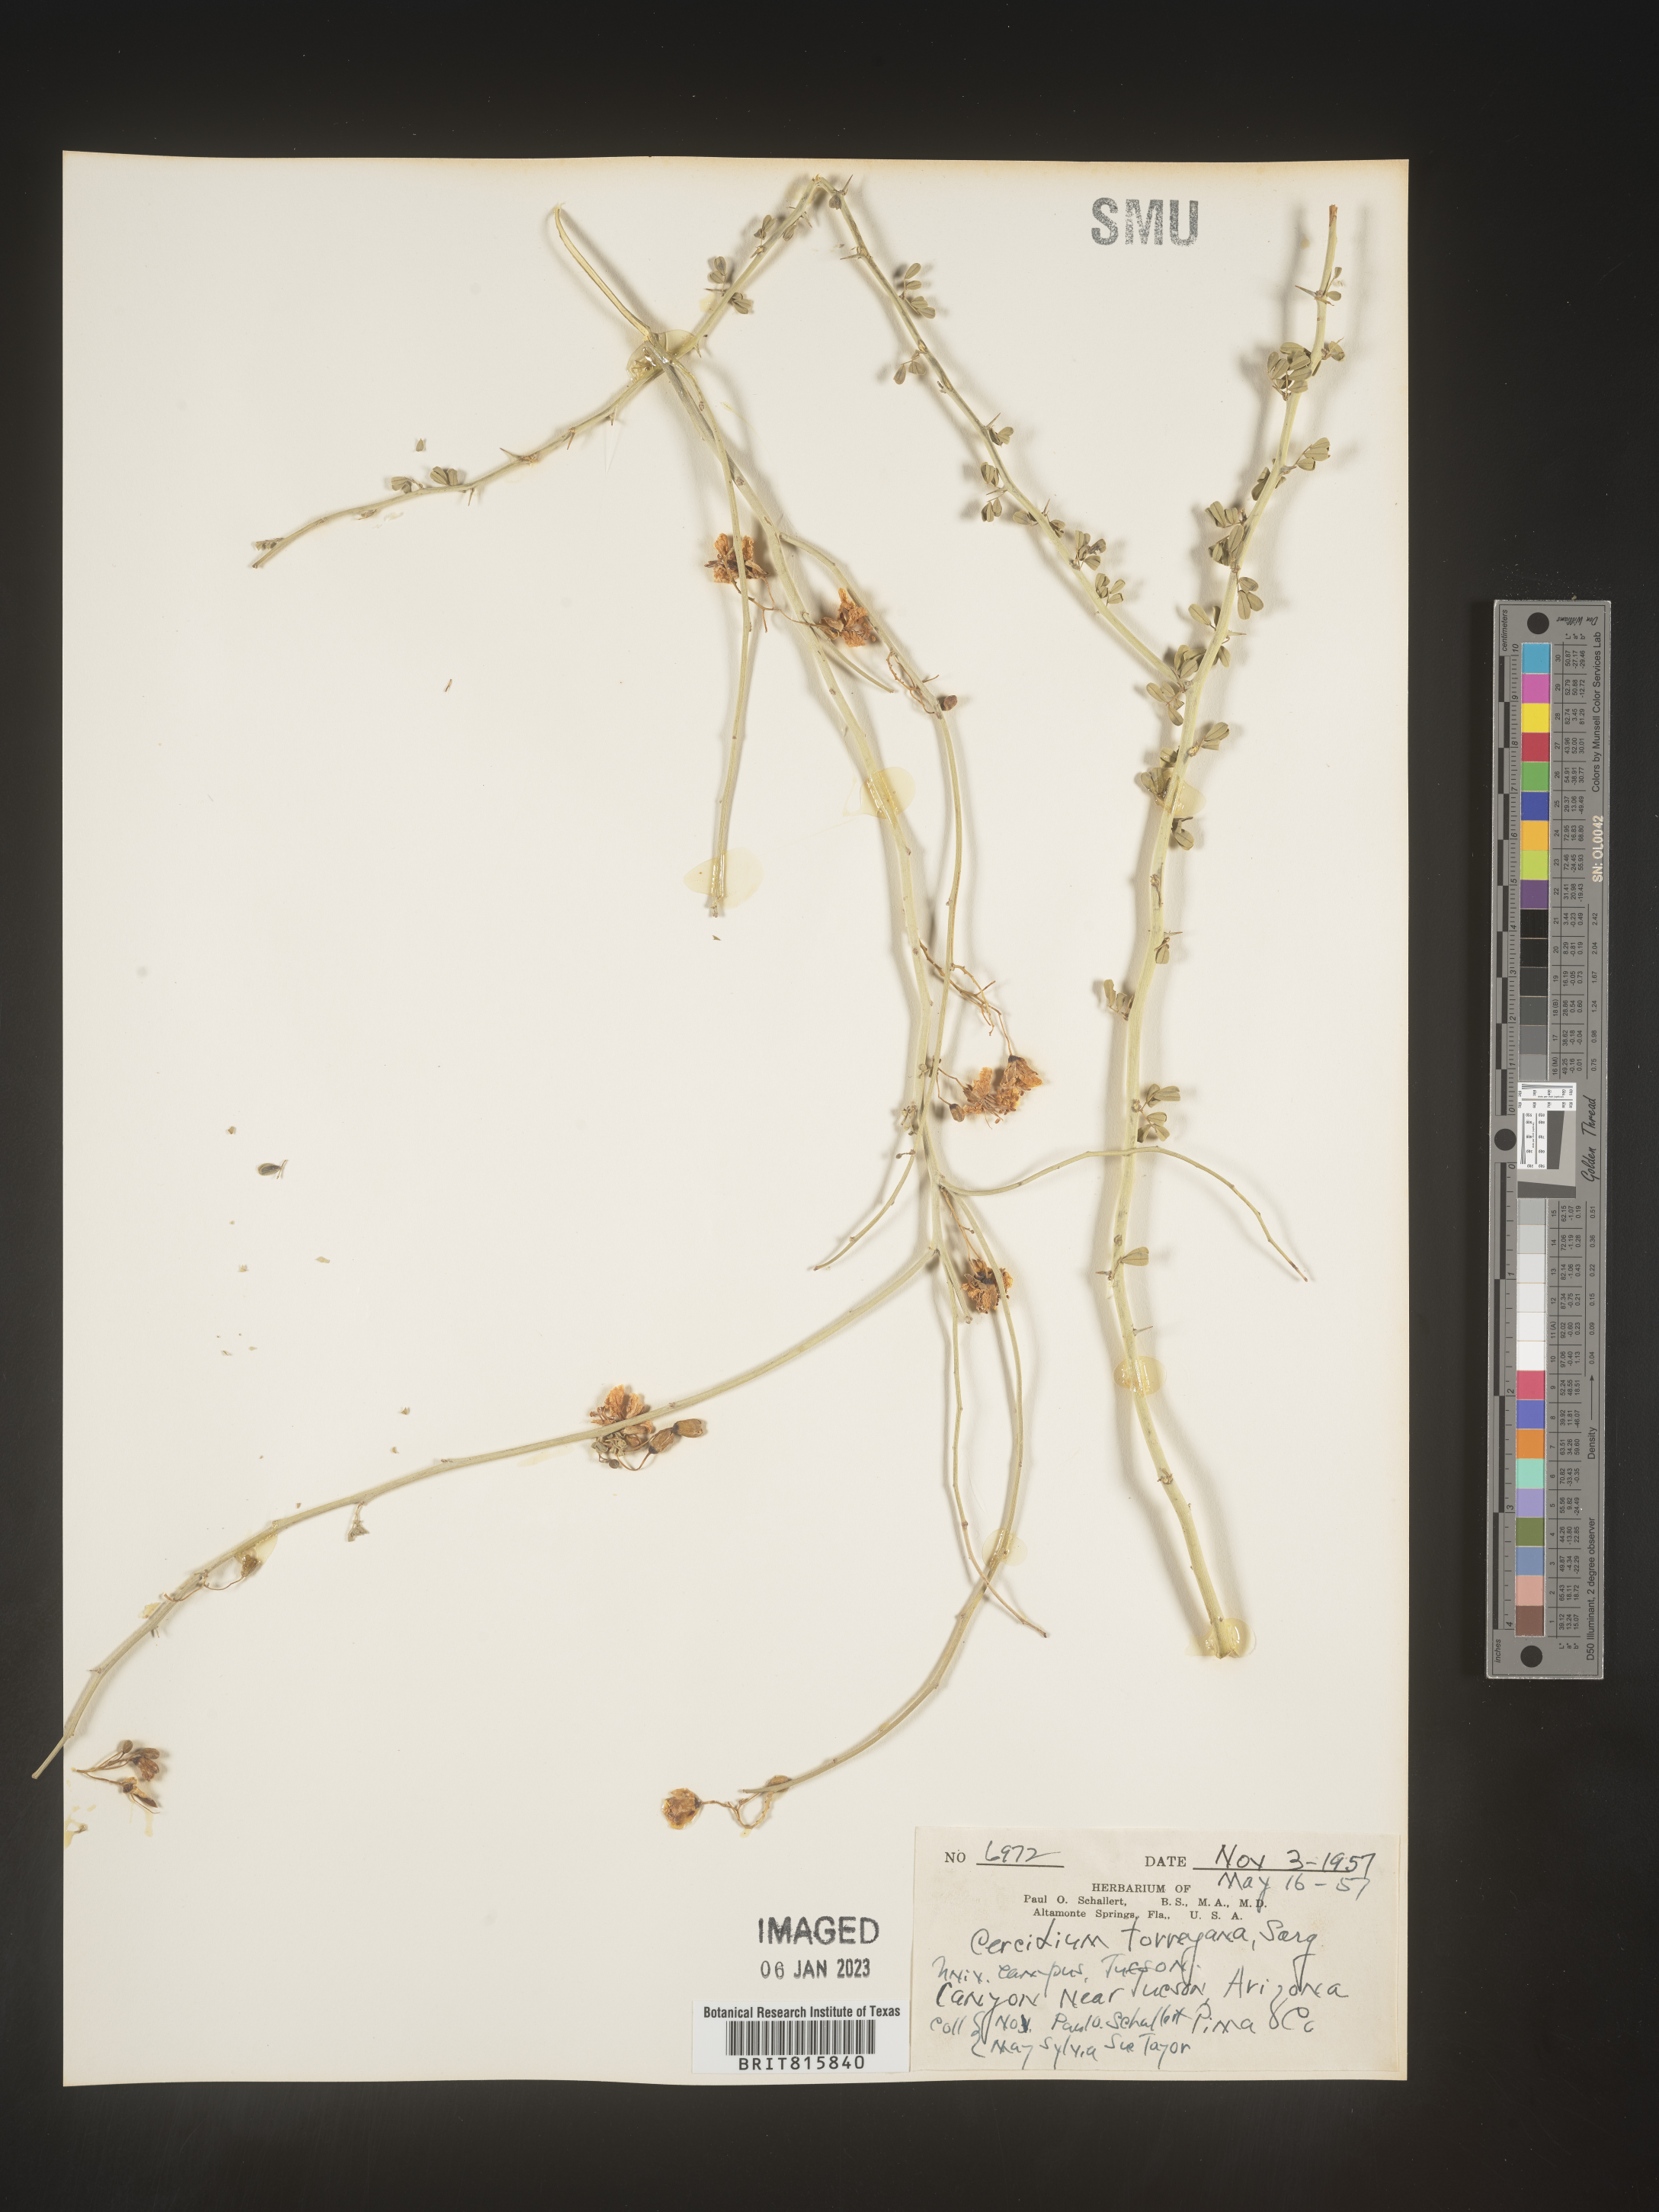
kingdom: Plantae
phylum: Chlorophyta
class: Chlorophyceae
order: Volvocales
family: Chlamydomonadaceae
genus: Cercidium
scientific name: Cercidium
